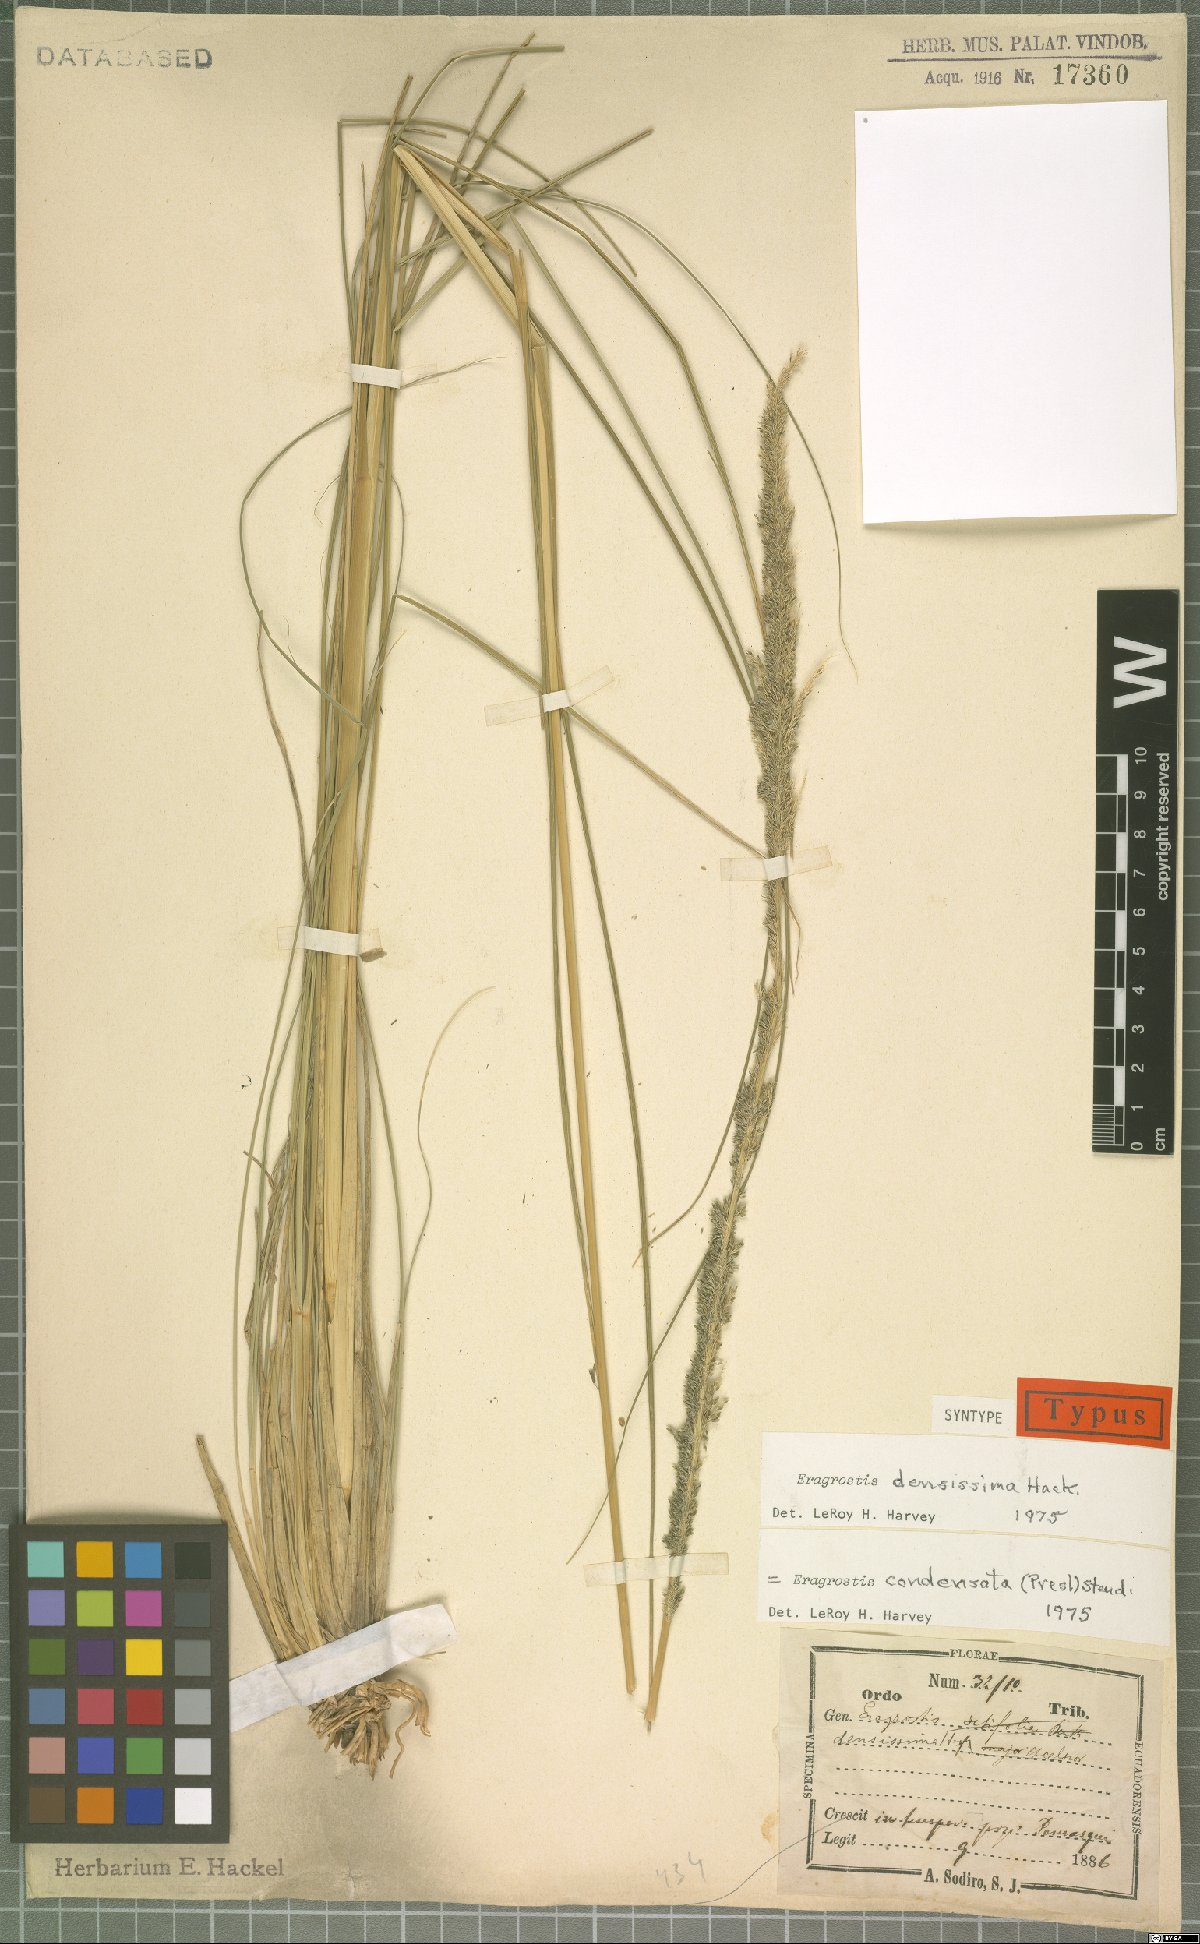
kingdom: Plantae
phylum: Tracheophyta
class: Liliopsida
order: Poales
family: Poaceae
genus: Eragrostis
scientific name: Eragrostis condensata
